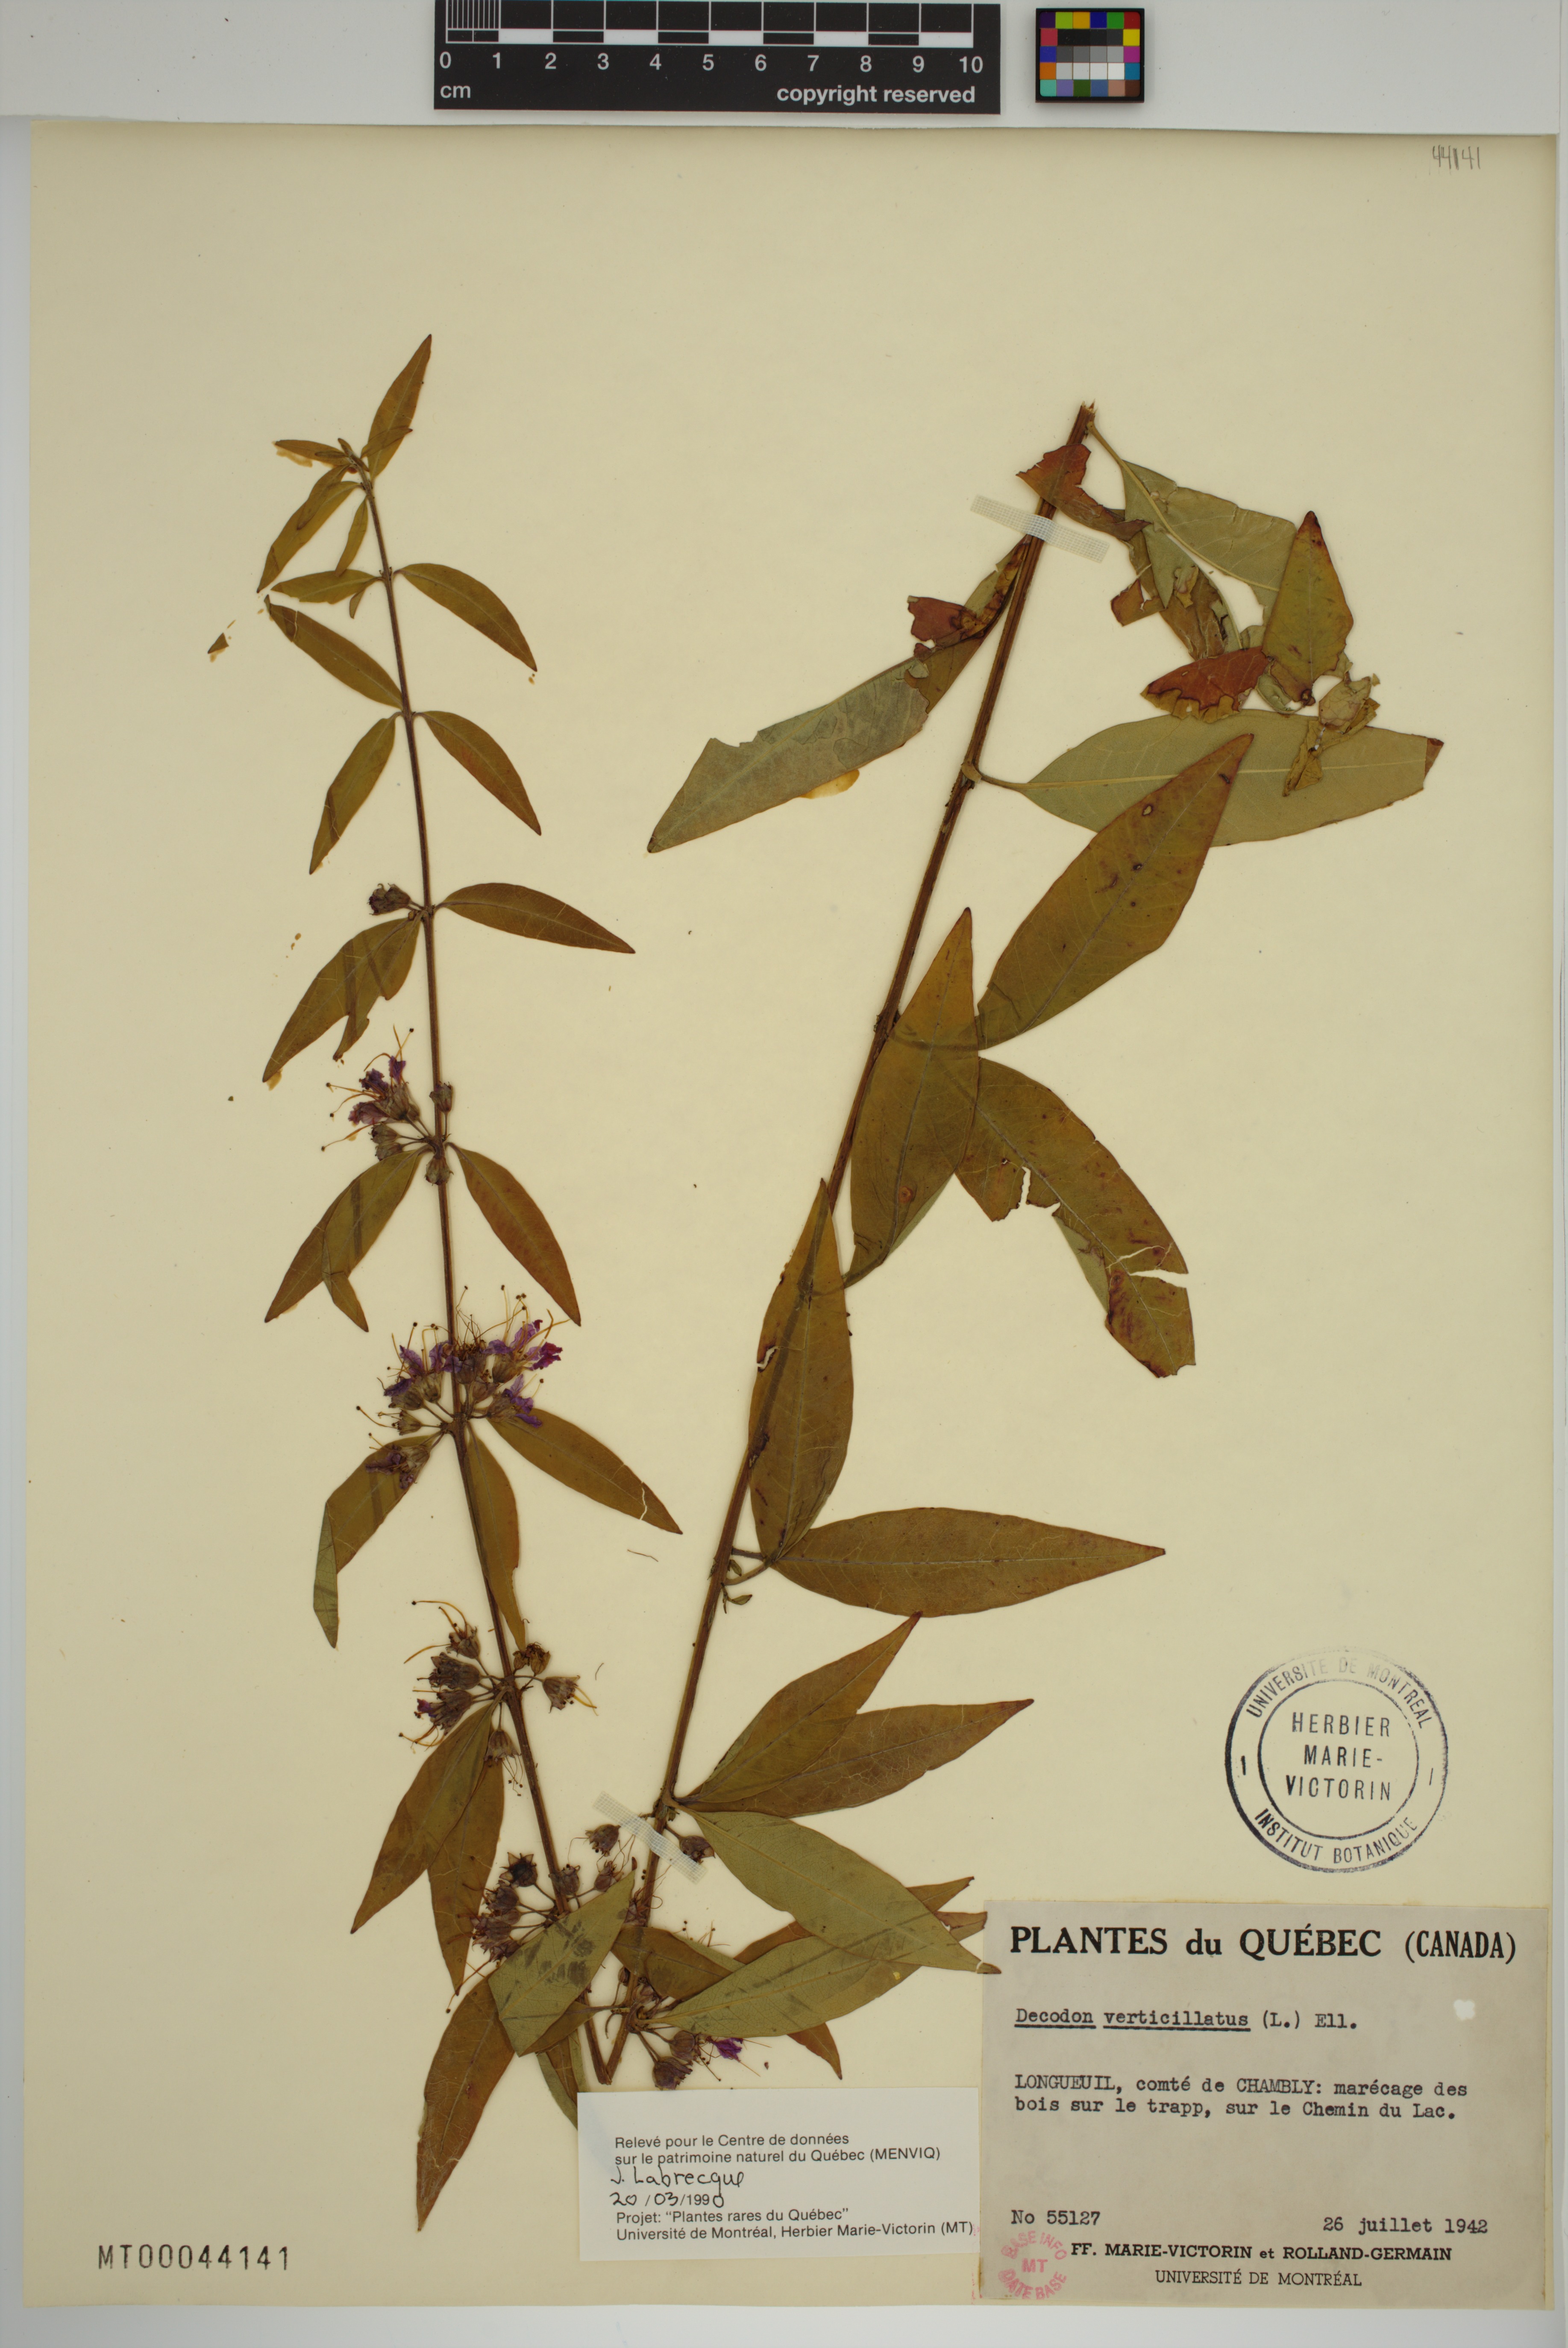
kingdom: Plantae
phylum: Tracheophyta
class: Magnoliopsida
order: Myrtales
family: Lythraceae
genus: Decodon
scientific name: Decodon verticillatus
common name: Hairy swamp loosestrife
